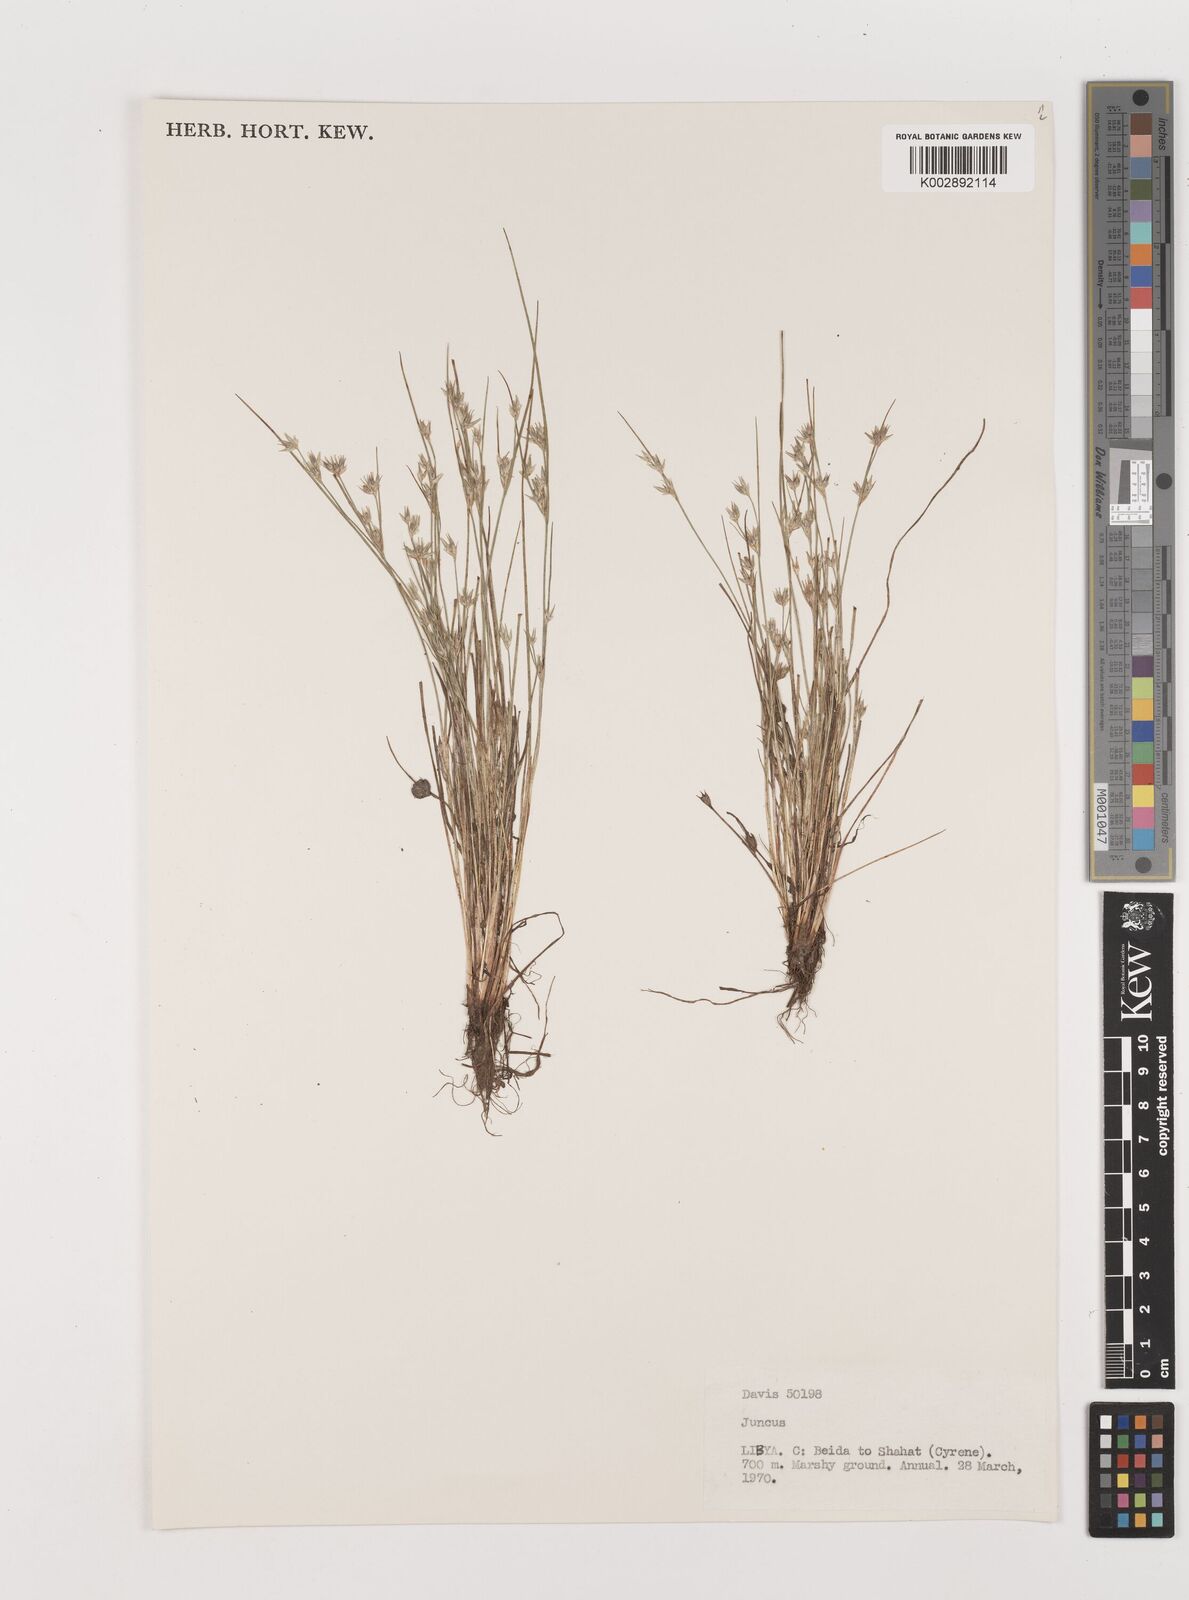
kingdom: Plantae
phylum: Tracheophyta
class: Liliopsida
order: Poales
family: Juncaceae
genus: Juncus
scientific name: Juncus
